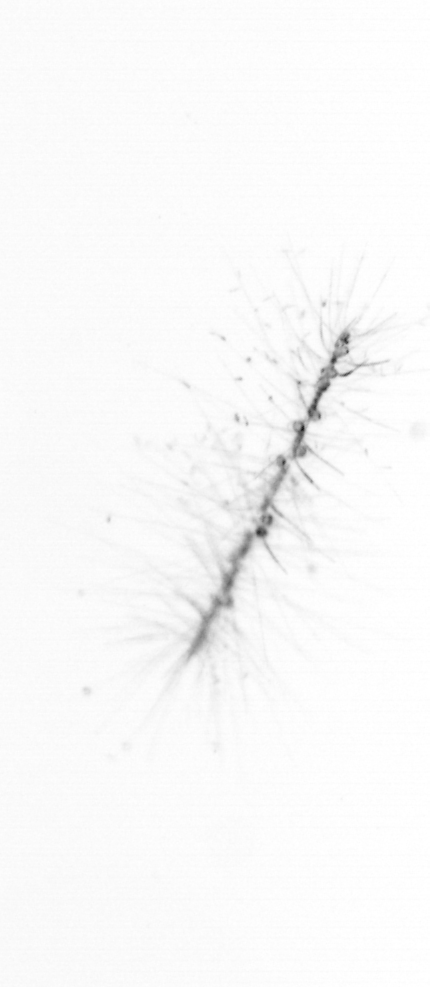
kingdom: Chromista
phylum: Ochrophyta
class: Bacillariophyceae
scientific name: Bacillariophyceae
